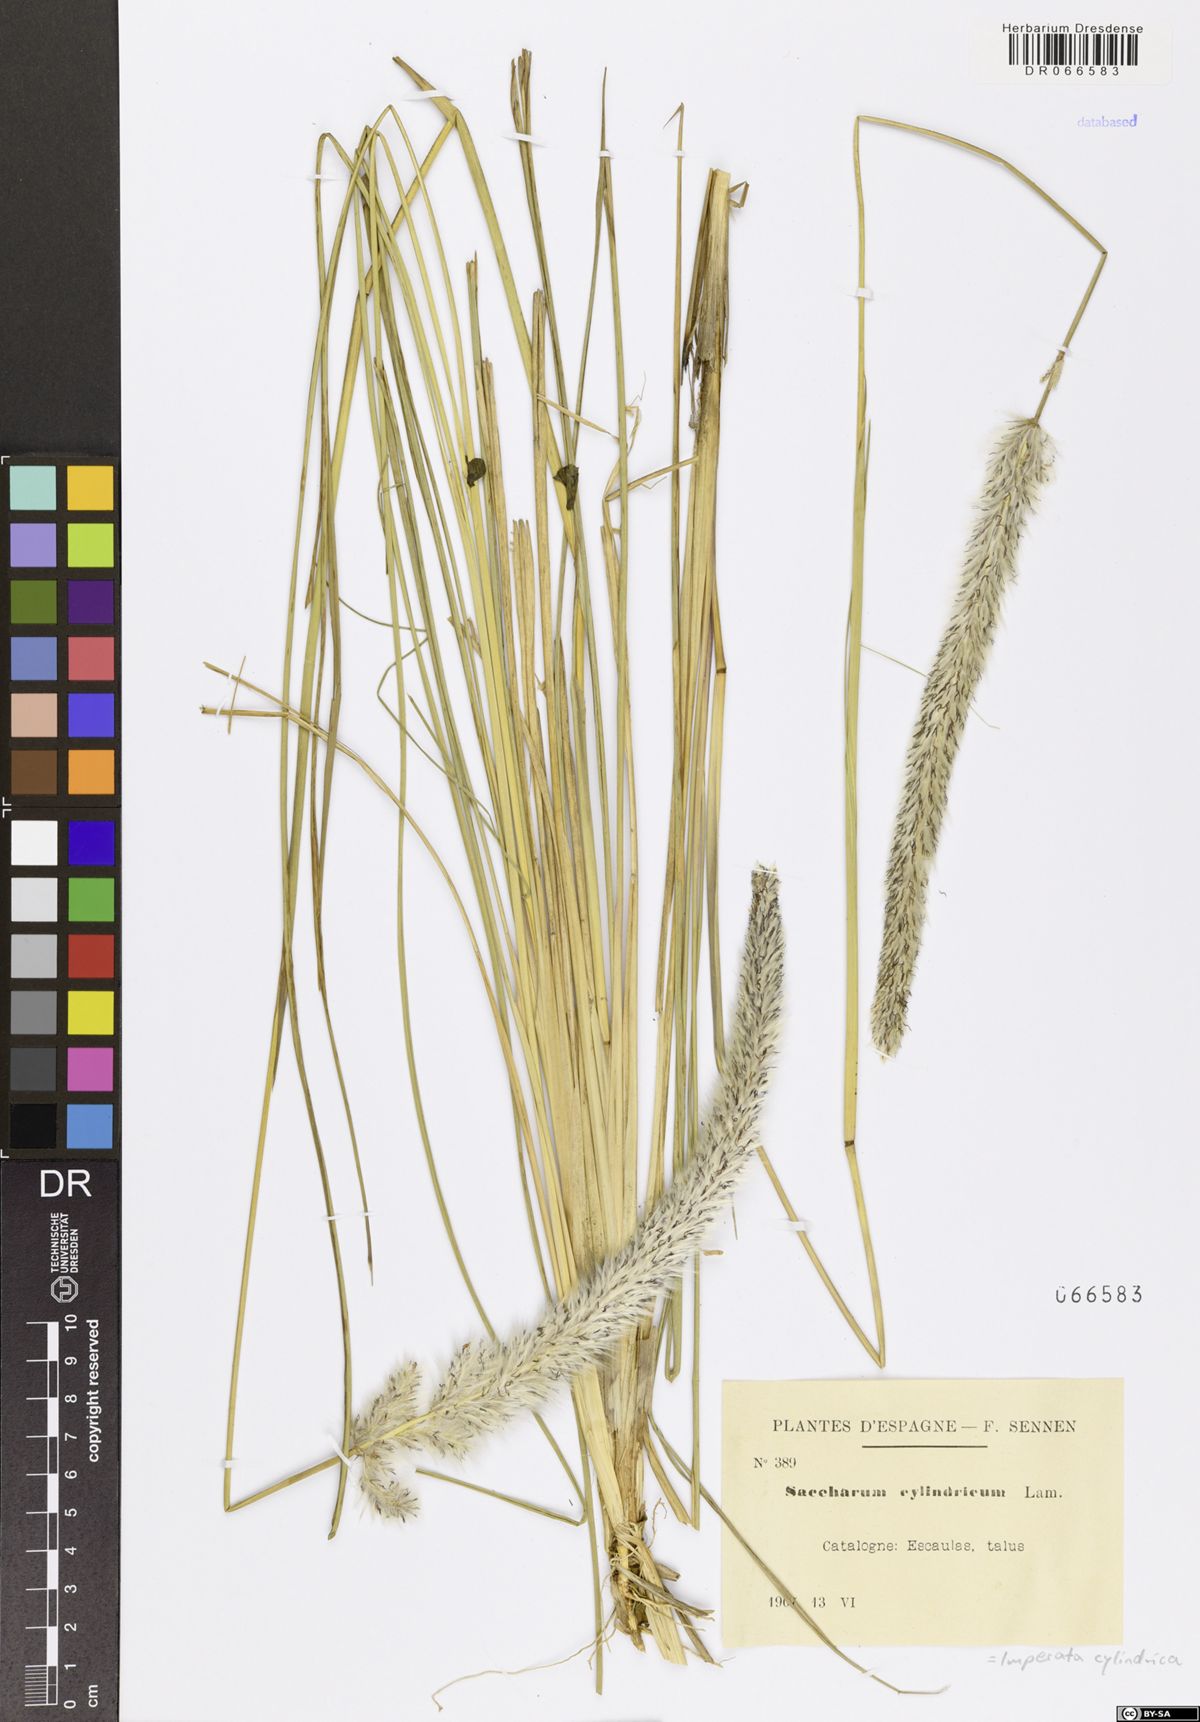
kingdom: Plantae
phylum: Tracheophyta
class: Liliopsida
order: Poales
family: Poaceae
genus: Imperata
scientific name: Imperata cylindrica
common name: Cogongrass
